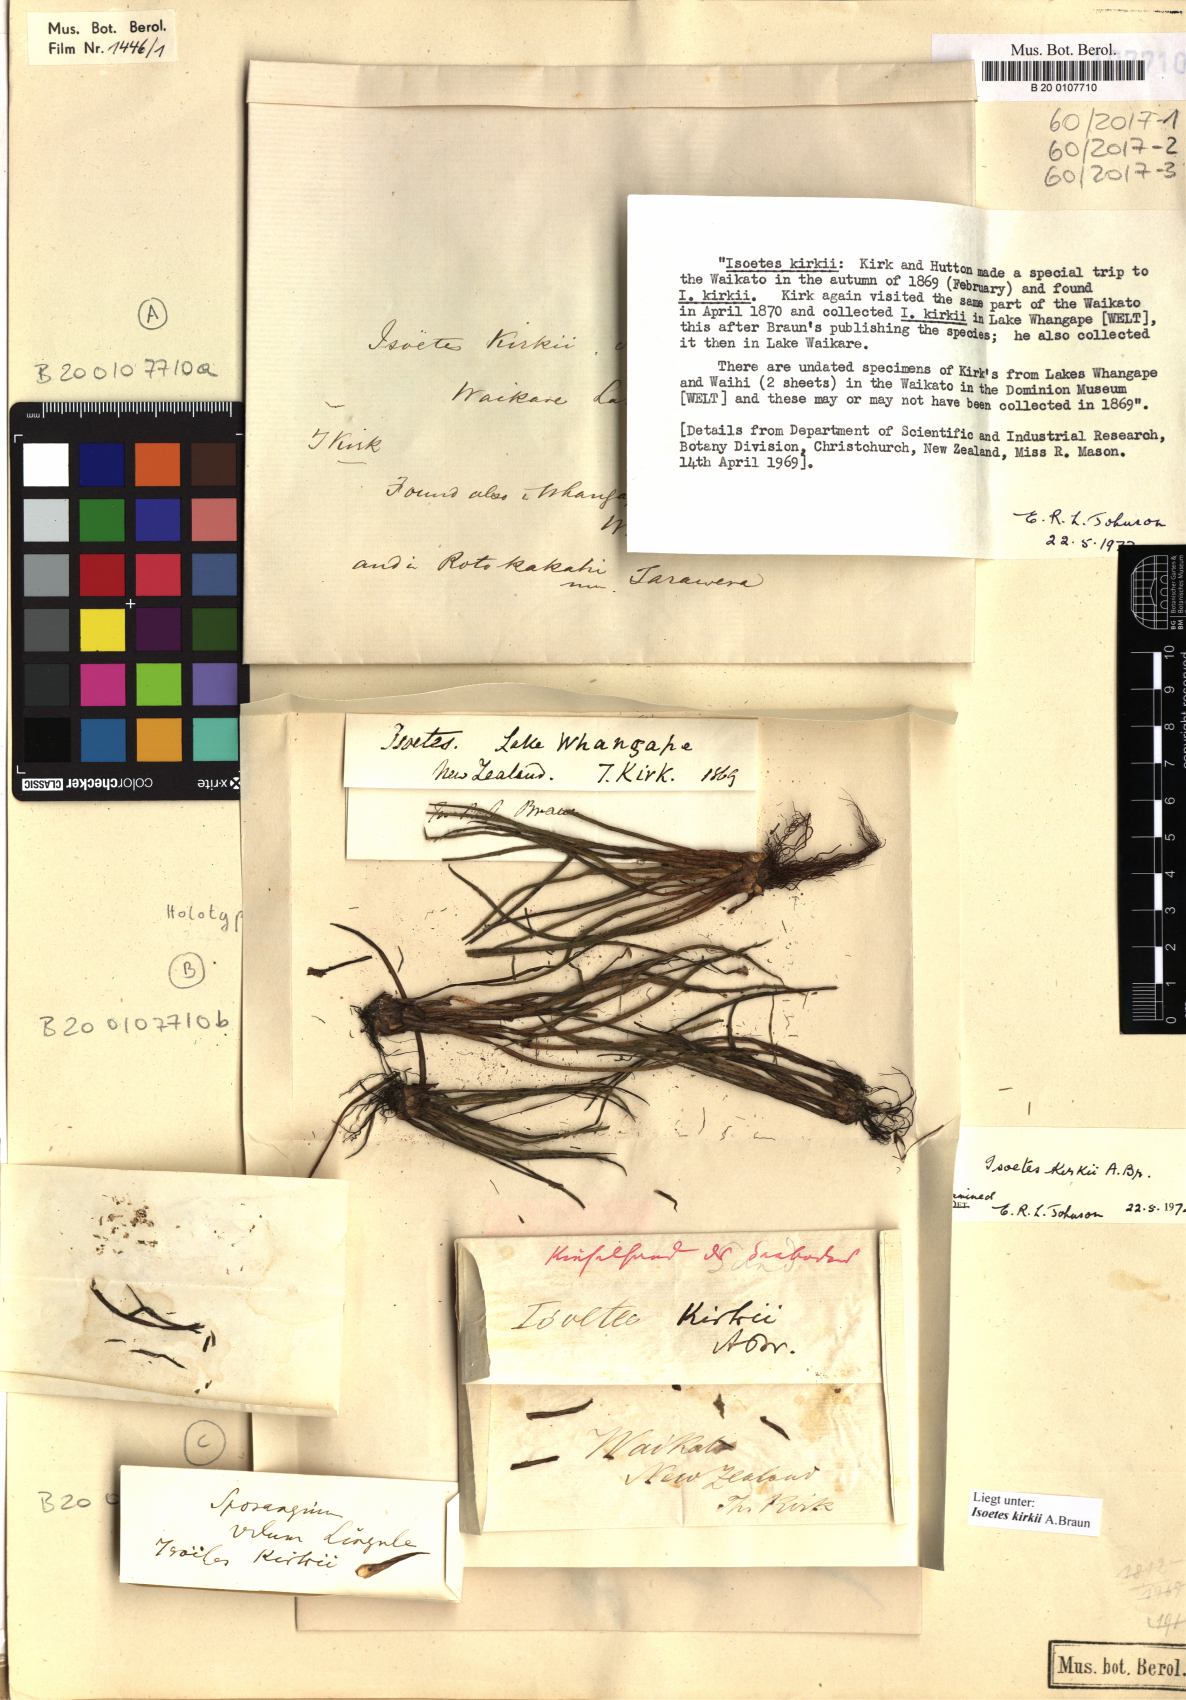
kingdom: Plantae
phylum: Tracheophyta
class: Lycopodiopsida
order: Isoetales
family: Isoetaceae
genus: Isoetes
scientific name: Isoetes kirkii
